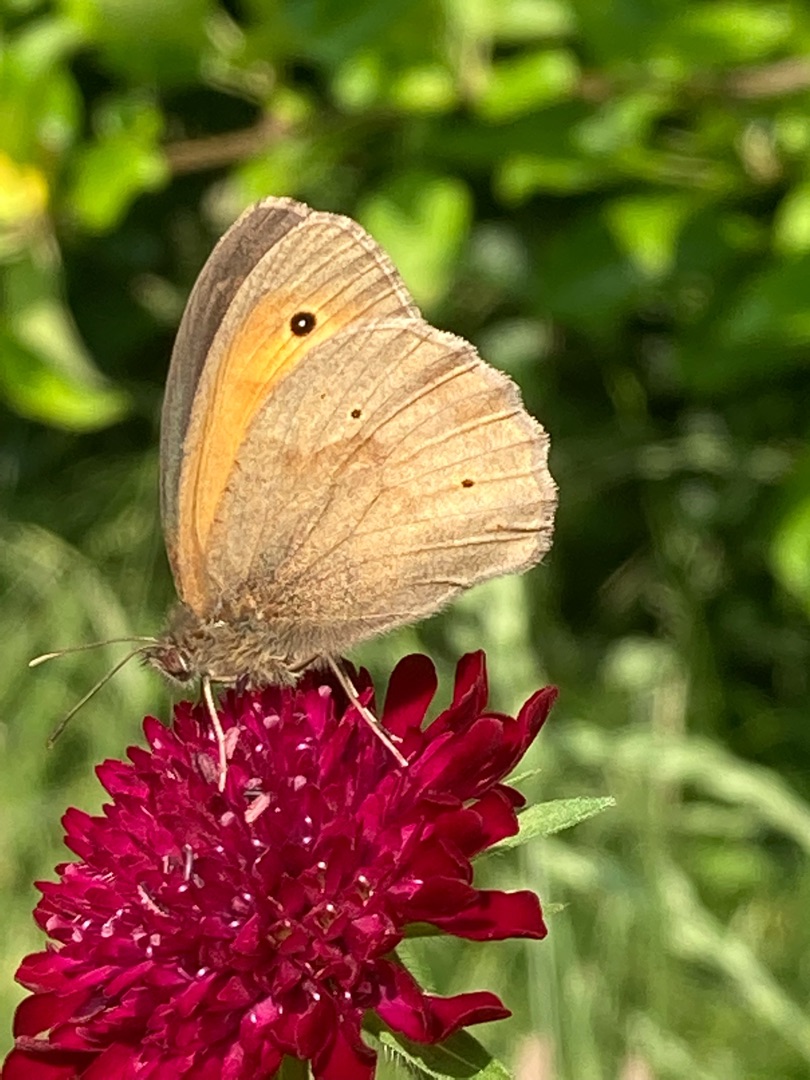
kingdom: Animalia
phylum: Arthropoda
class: Insecta
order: Lepidoptera
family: Nymphalidae
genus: Maniola
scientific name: Maniola jurtina
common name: Græsrandøje
